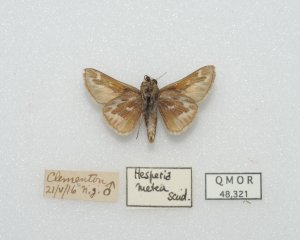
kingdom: Animalia
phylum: Arthropoda
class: Insecta
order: Lepidoptera
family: Hesperiidae
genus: Hesperia
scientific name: Hesperia metea
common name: Cobweb Skipper
